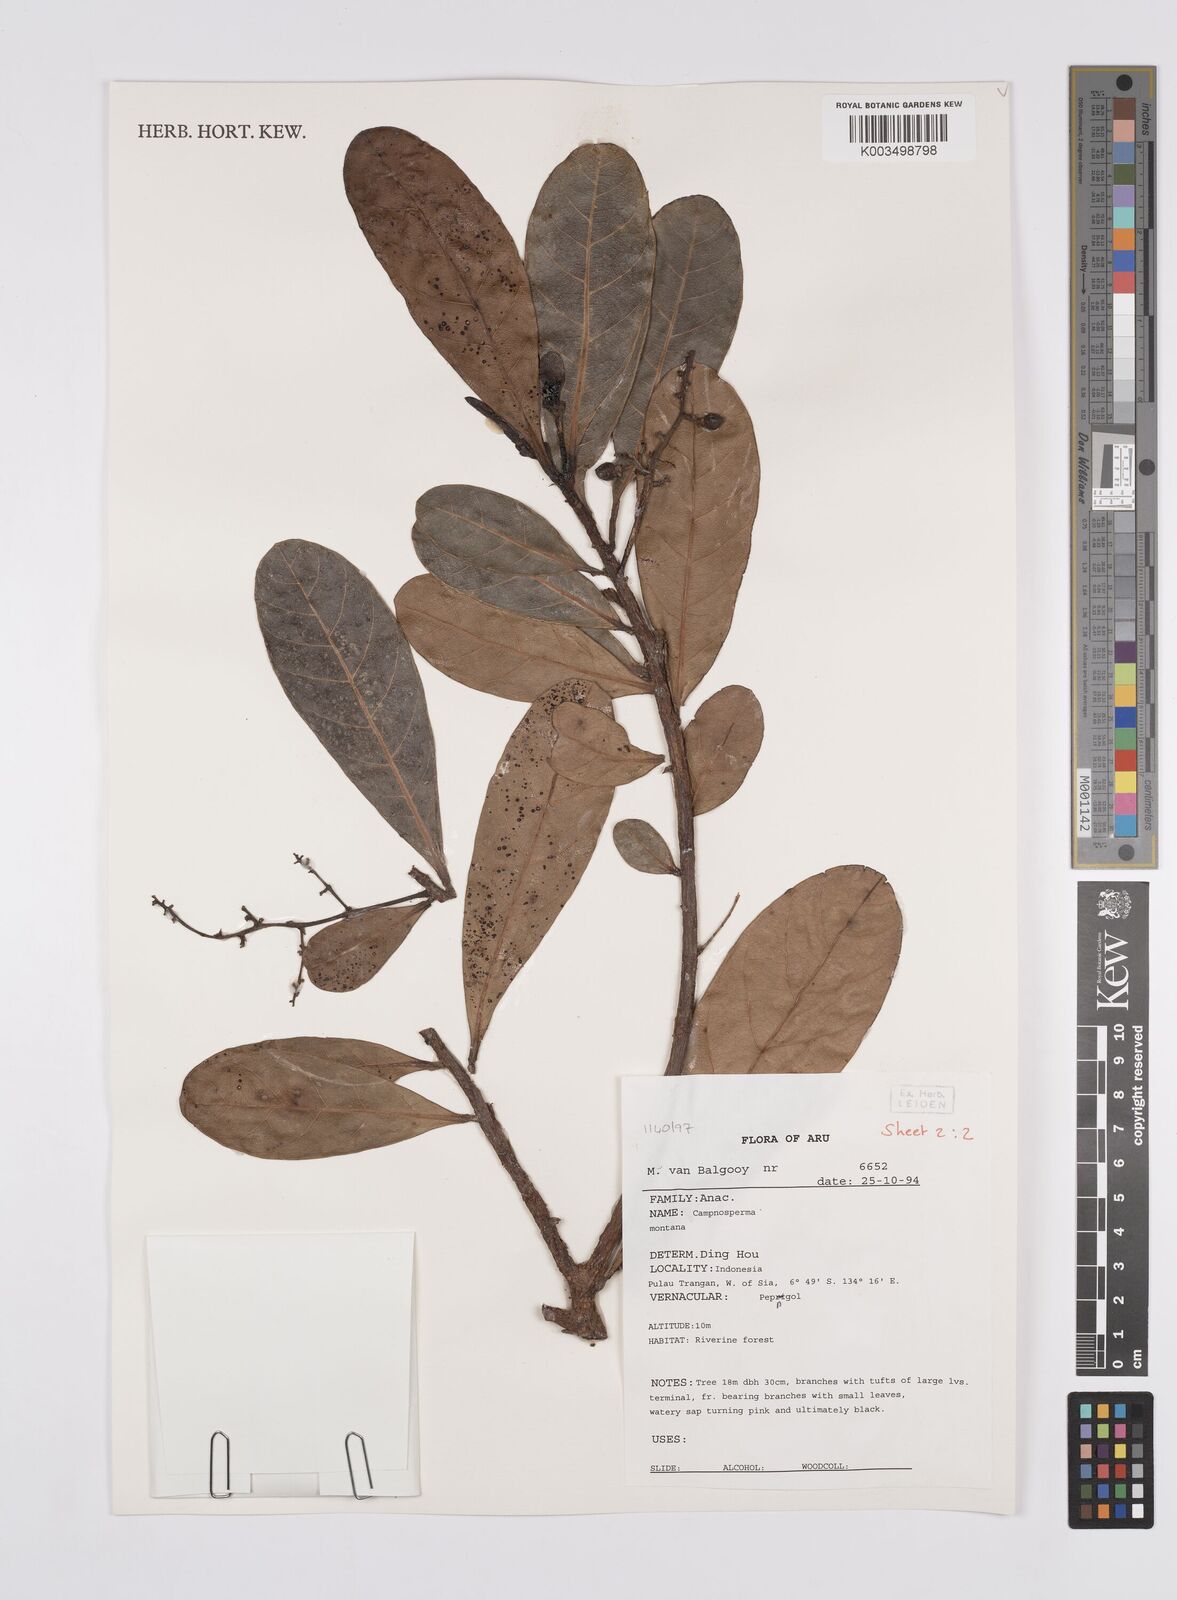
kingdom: Plantae
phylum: Tracheophyta
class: Magnoliopsida
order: Sapindales
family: Anacardiaceae
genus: Campnosperma
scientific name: Campnosperma montanum
